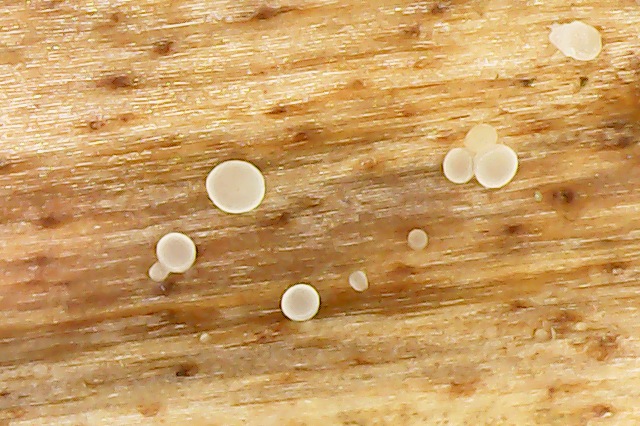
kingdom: Fungi
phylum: Ascomycota
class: Leotiomycetes
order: Helotiales
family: Pezizellaceae
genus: Allophylaria
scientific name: Allophylaria campanuliformis
